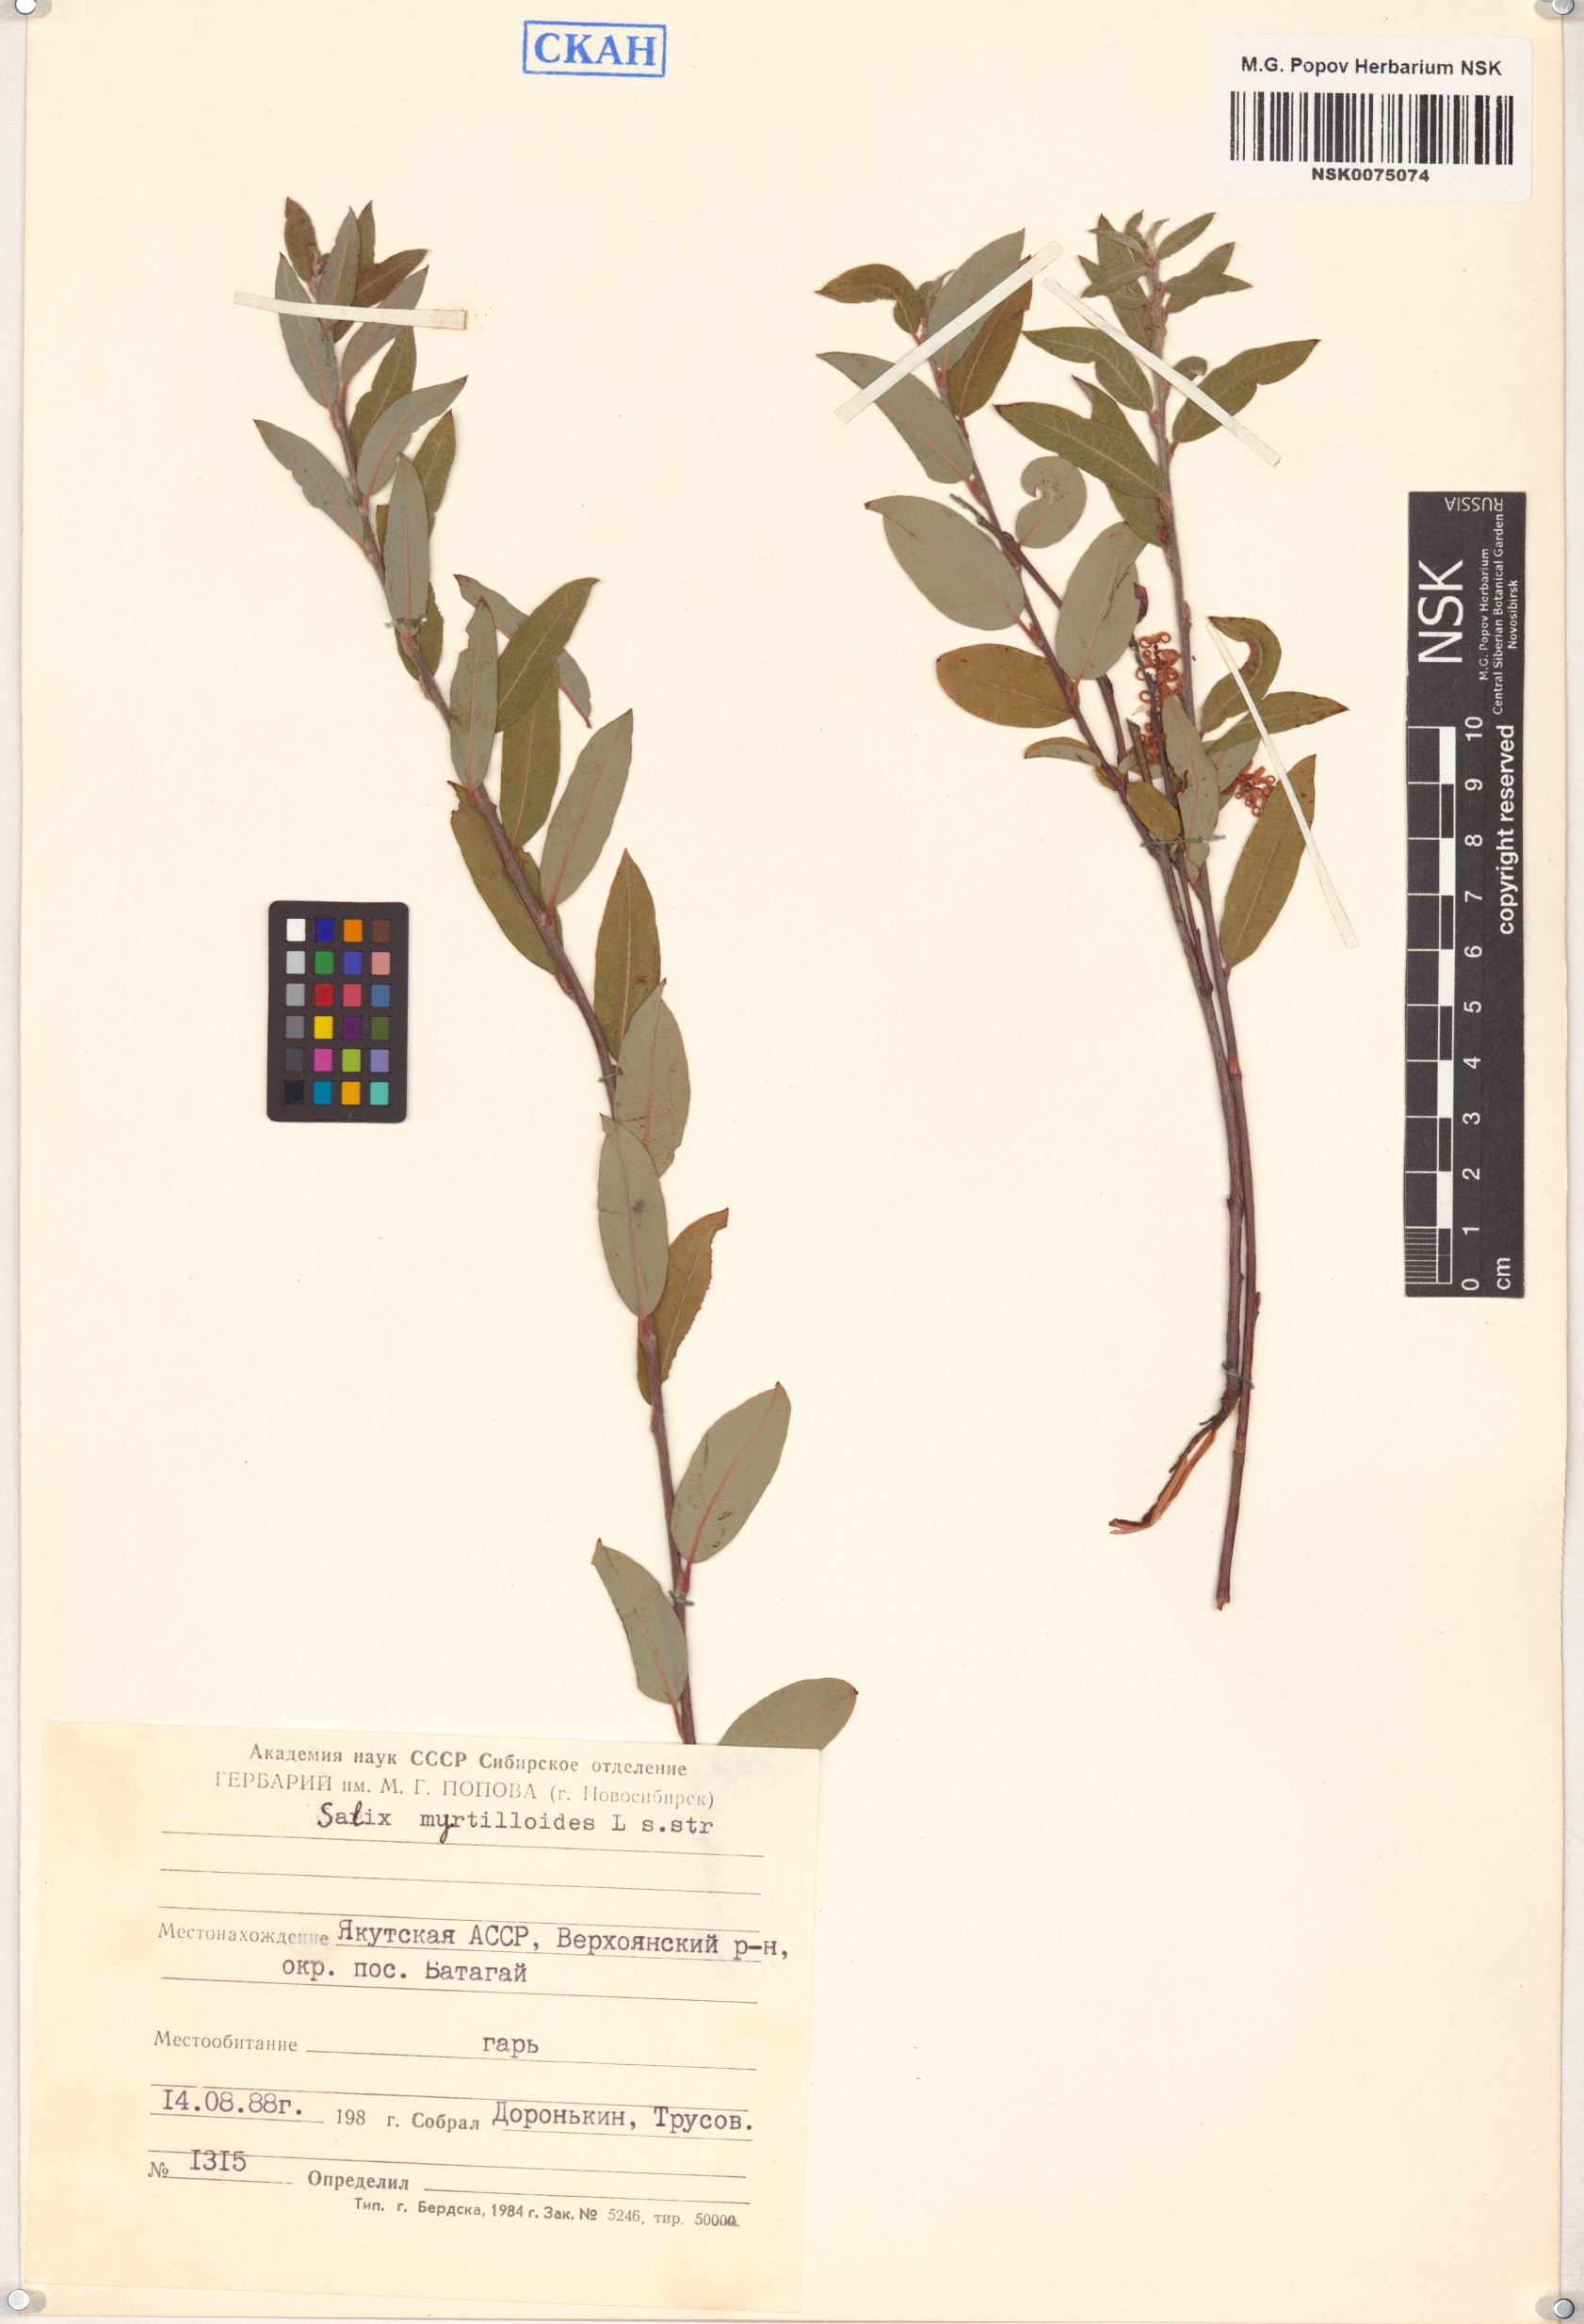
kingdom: Plantae
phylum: Tracheophyta
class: Magnoliopsida
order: Malpighiales
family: Salicaceae
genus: Salix
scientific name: Salix myrtilloides
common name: Myrtle-leaved willow
